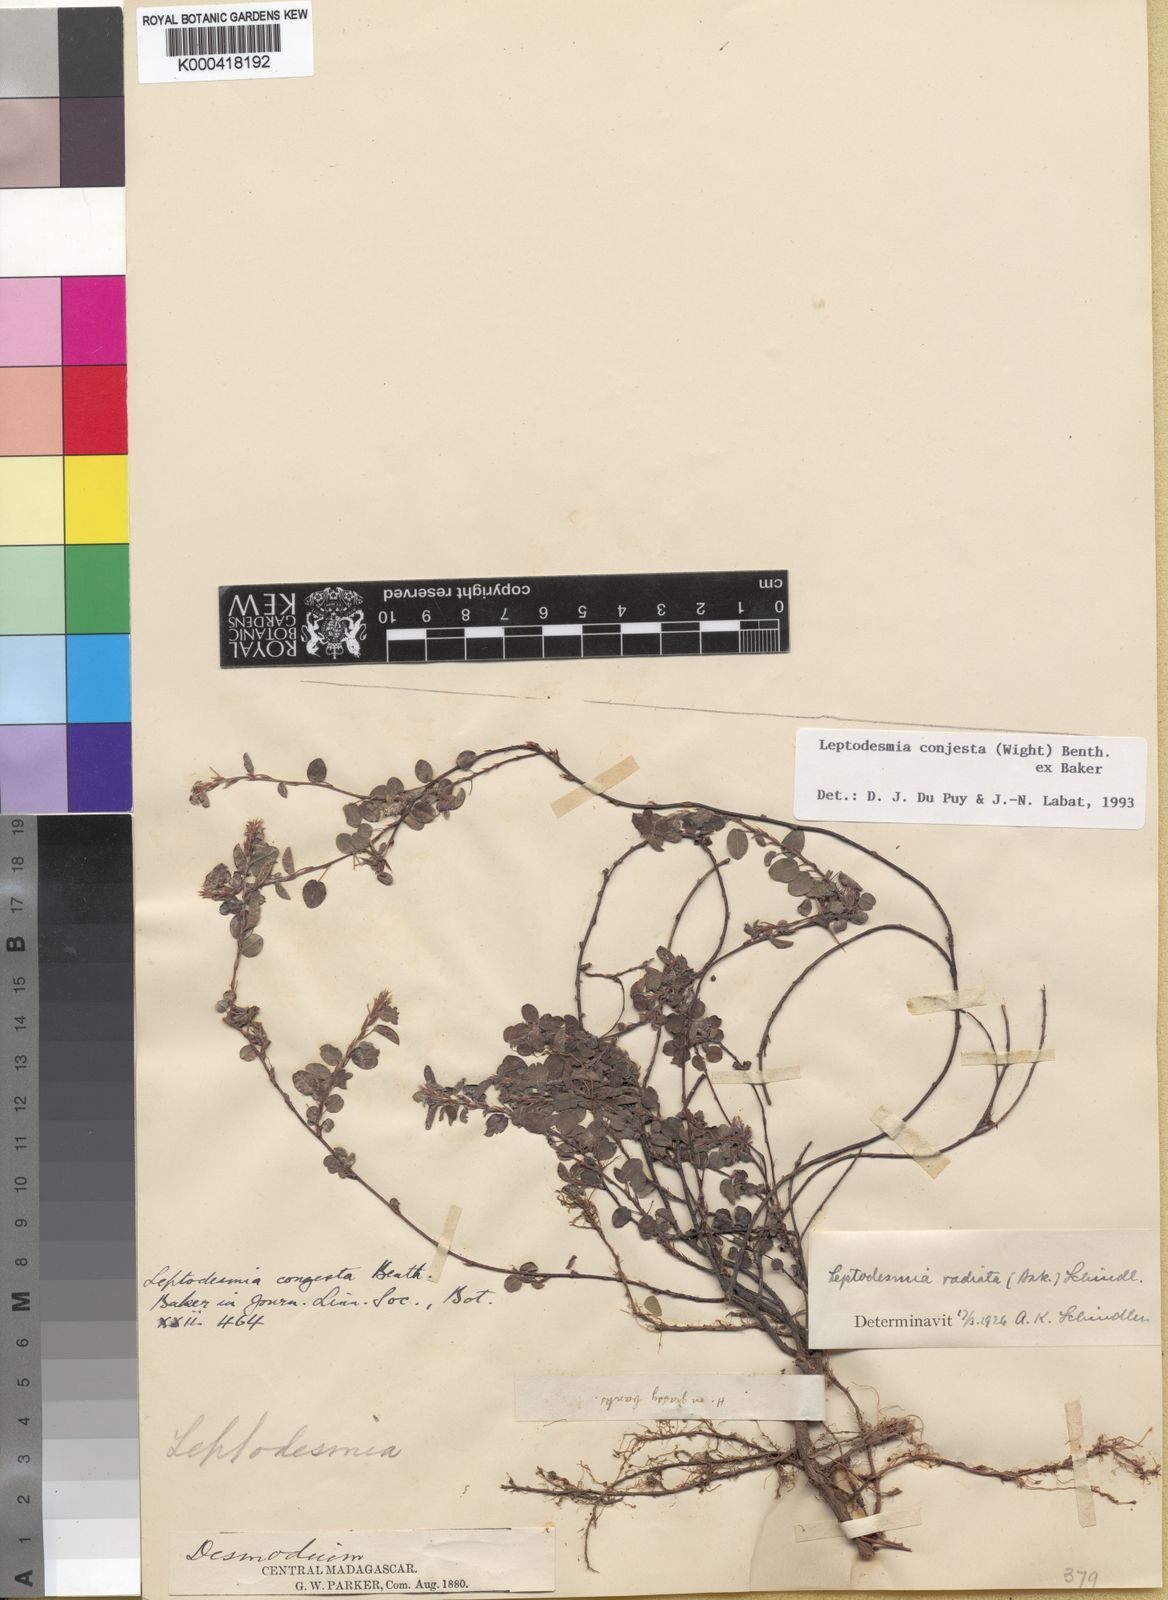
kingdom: Plantae
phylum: Tracheophyta
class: Magnoliopsida
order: Fabales
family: Fabaceae
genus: Leptodesmia
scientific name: Leptodesmia
